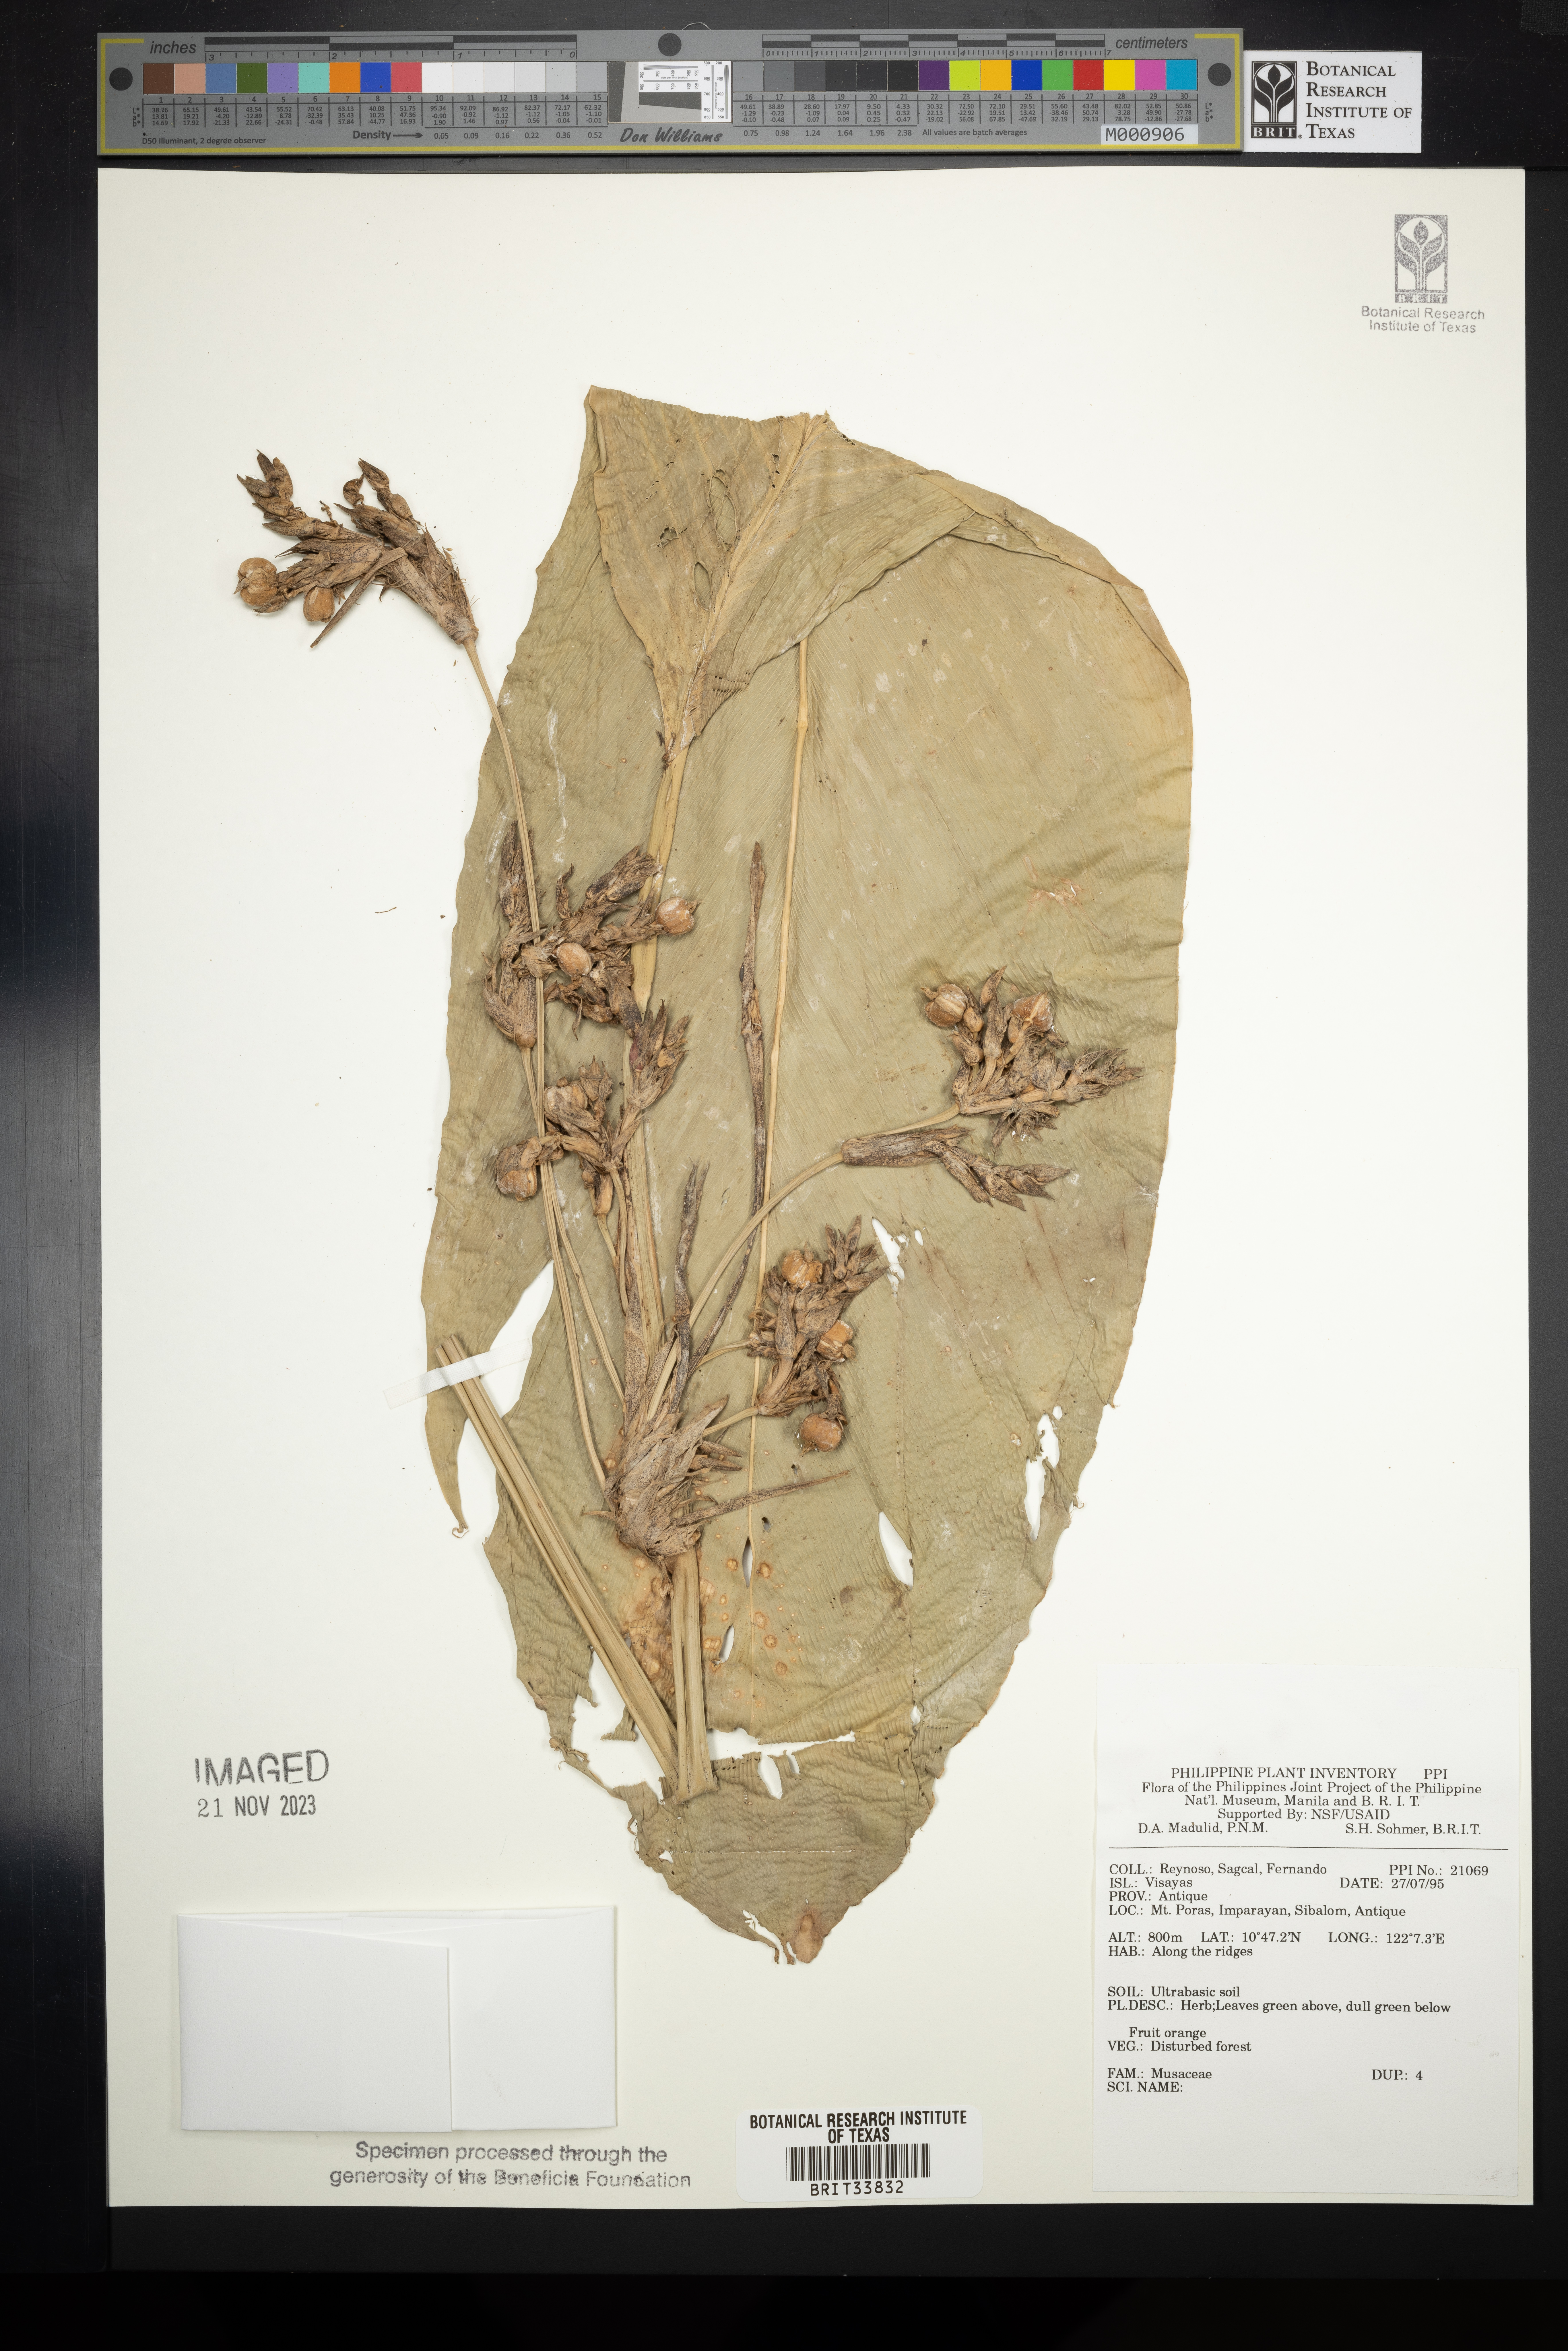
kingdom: Plantae
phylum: Tracheophyta
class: Liliopsida
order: Zingiberales
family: Musaceae
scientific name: Musaceae
